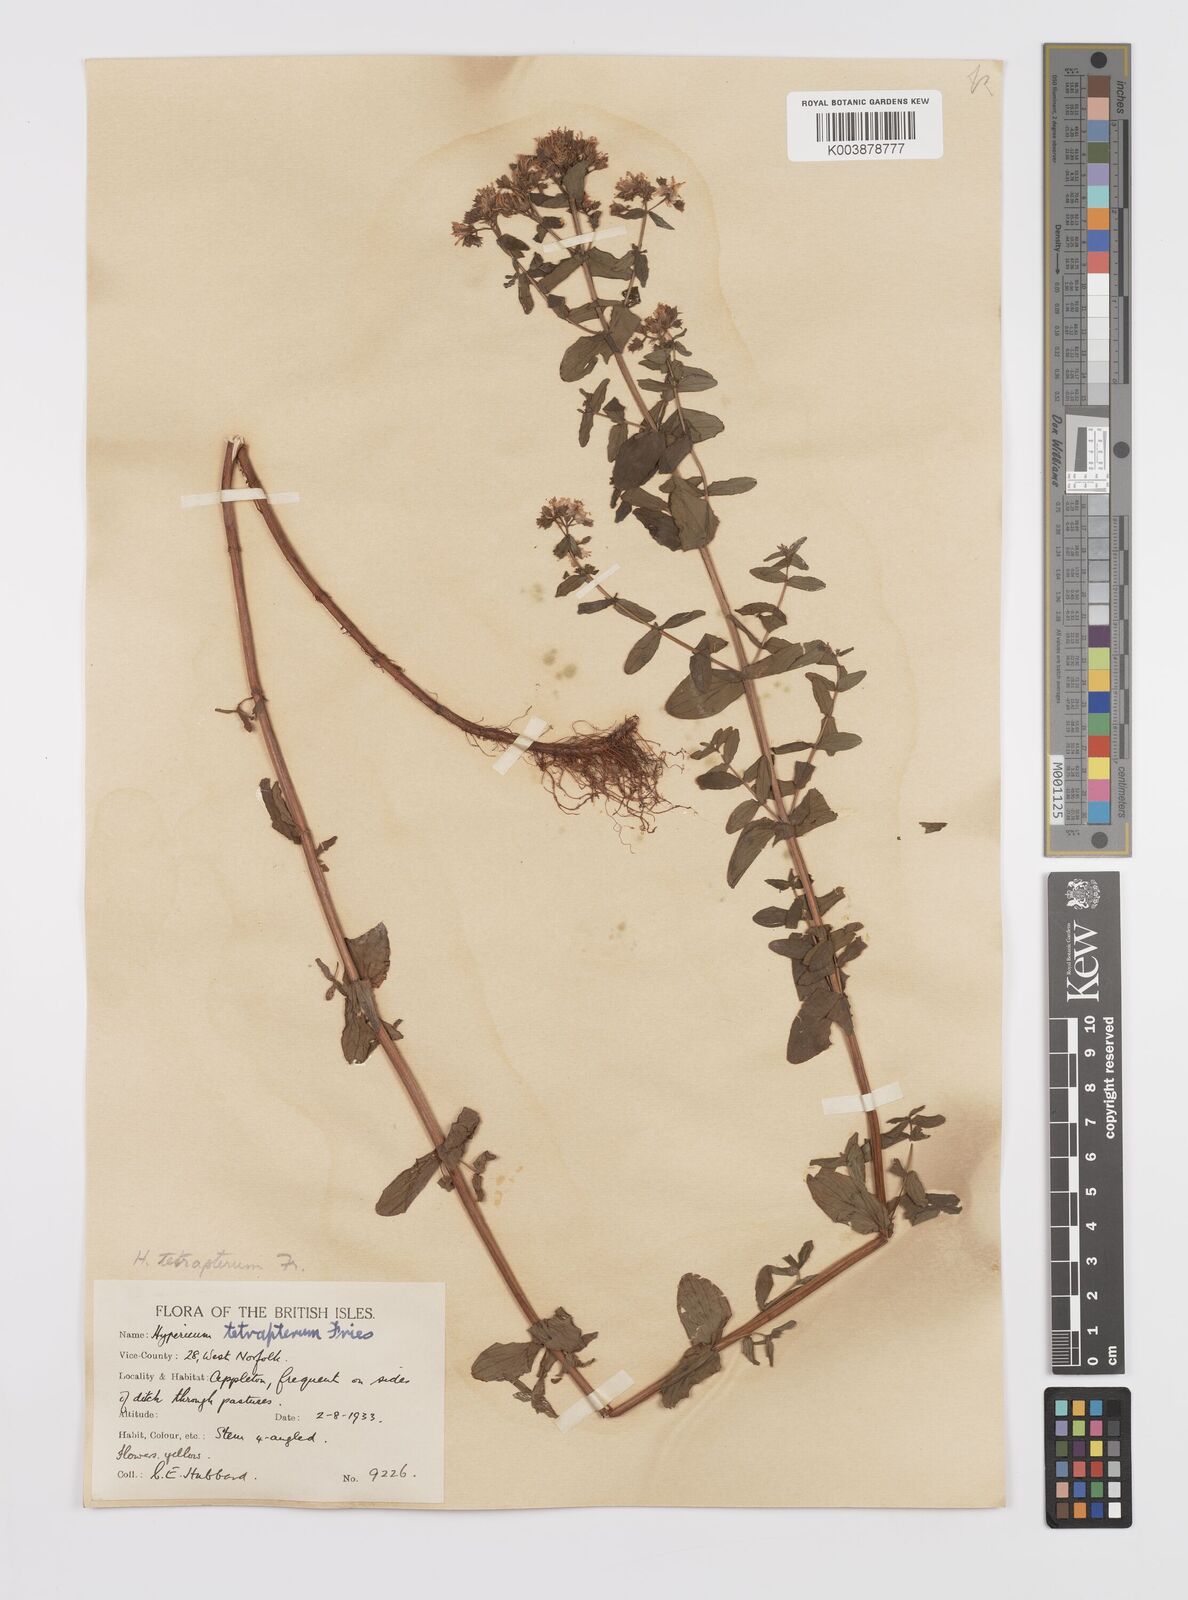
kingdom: Plantae
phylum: Tracheophyta
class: Magnoliopsida
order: Malpighiales
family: Hypericaceae
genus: Hypericum
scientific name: Hypericum tetrapterum
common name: Square-stalked st. john's-wort
